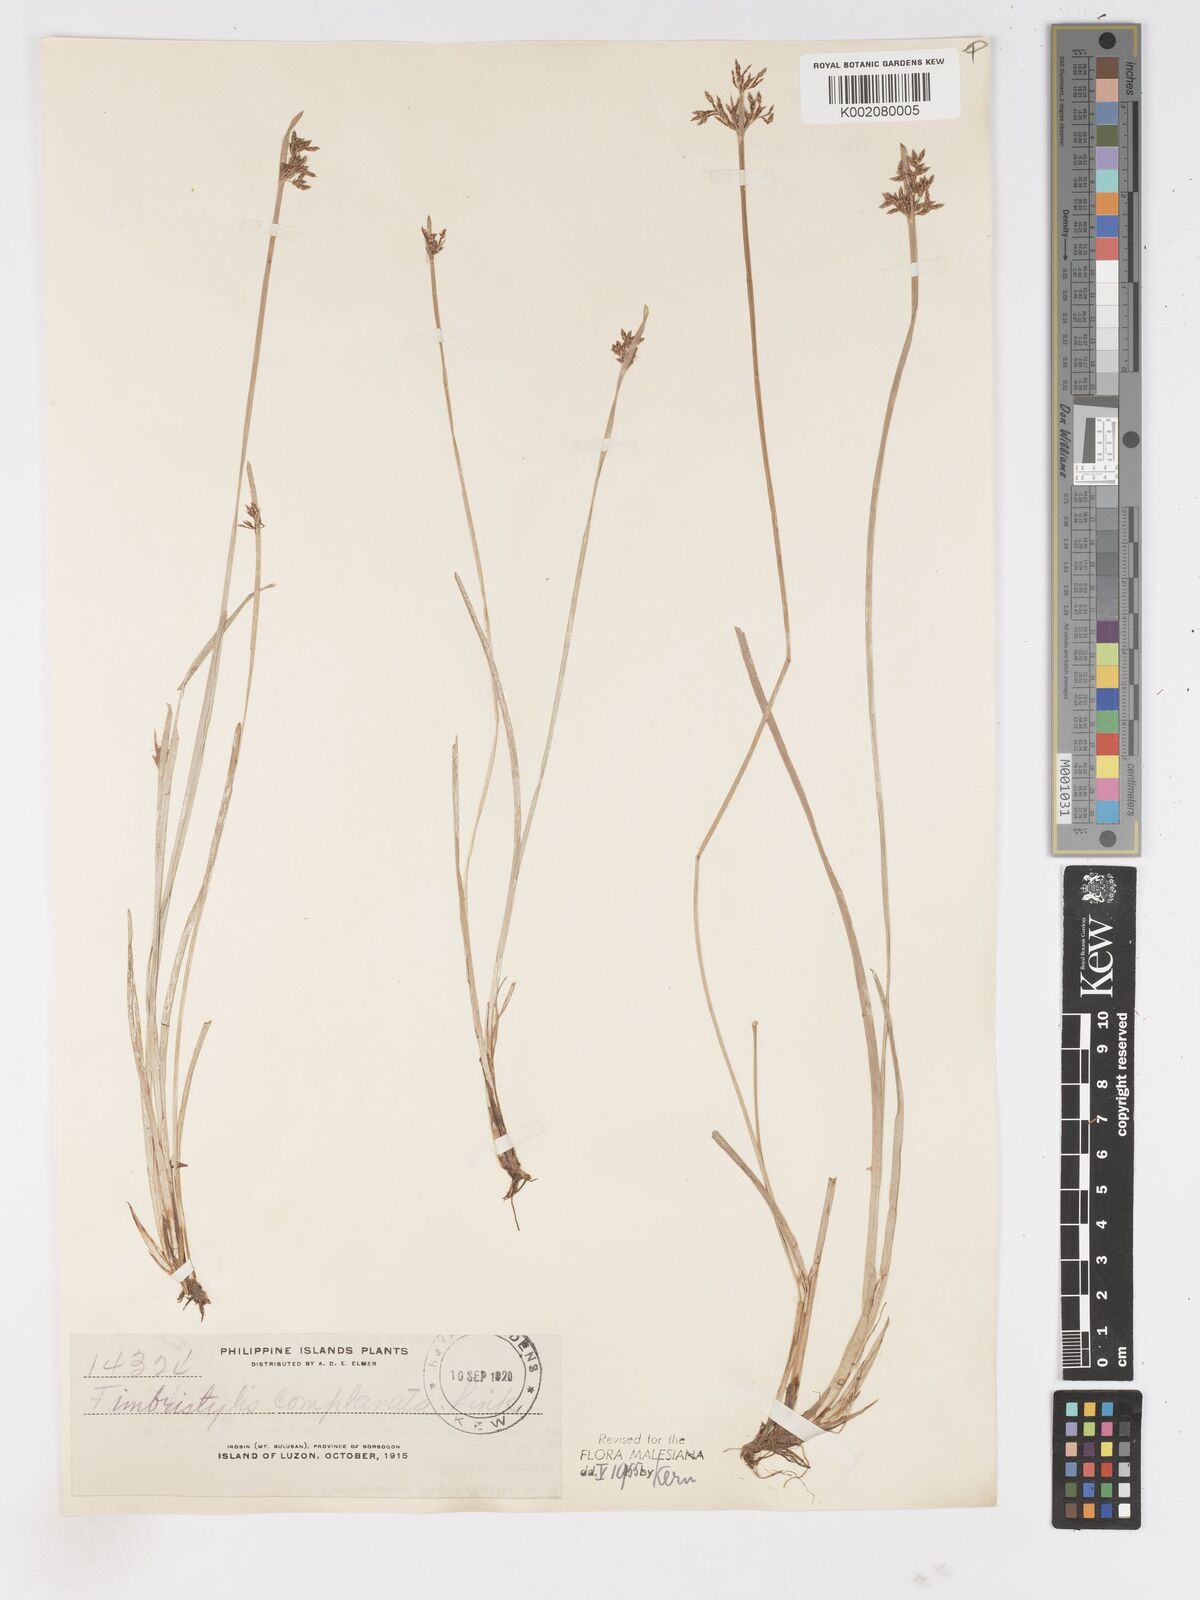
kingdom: Plantae
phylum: Tracheophyta
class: Liliopsida
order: Poales
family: Cyperaceae
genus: Fimbristylis
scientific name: Fimbristylis complanata
